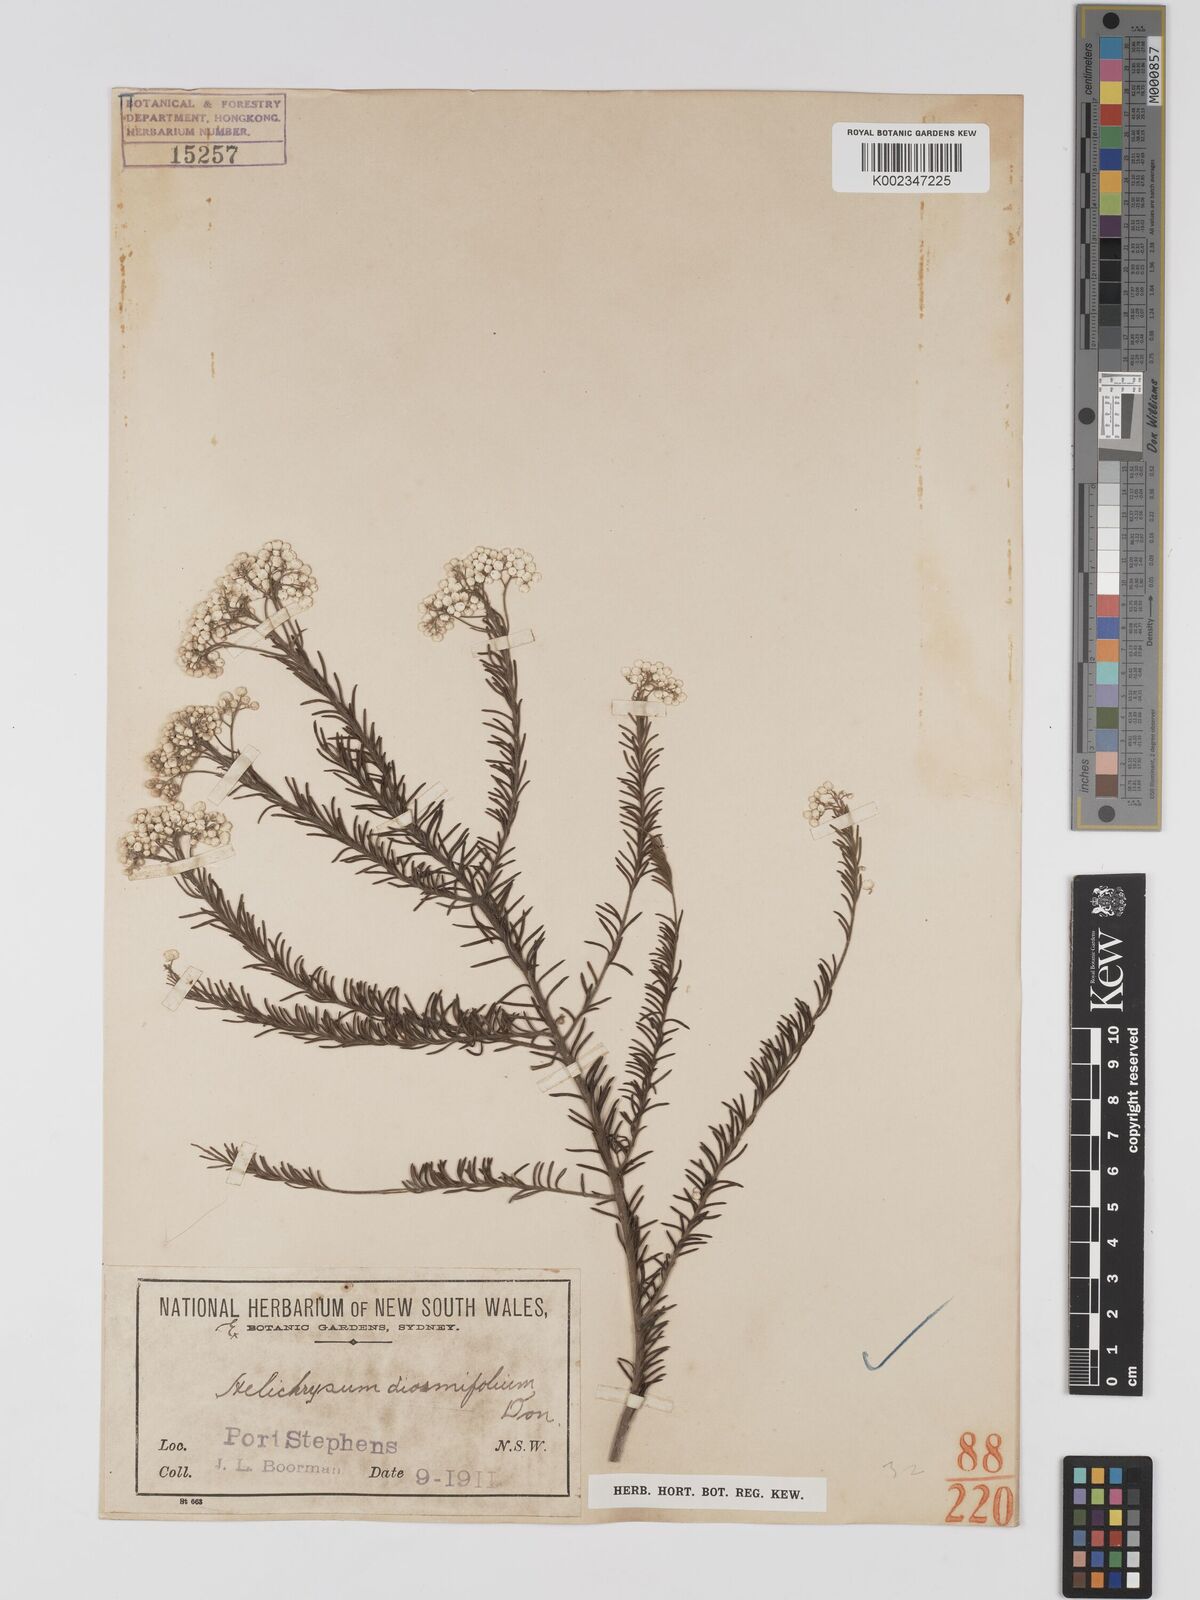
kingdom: Plantae
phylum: Tracheophyta
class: Magnoliopsida
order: Asterales
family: Asteraceae
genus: Ozothamnus
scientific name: Ozothamnus diosmifolius
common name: White-dogwood
